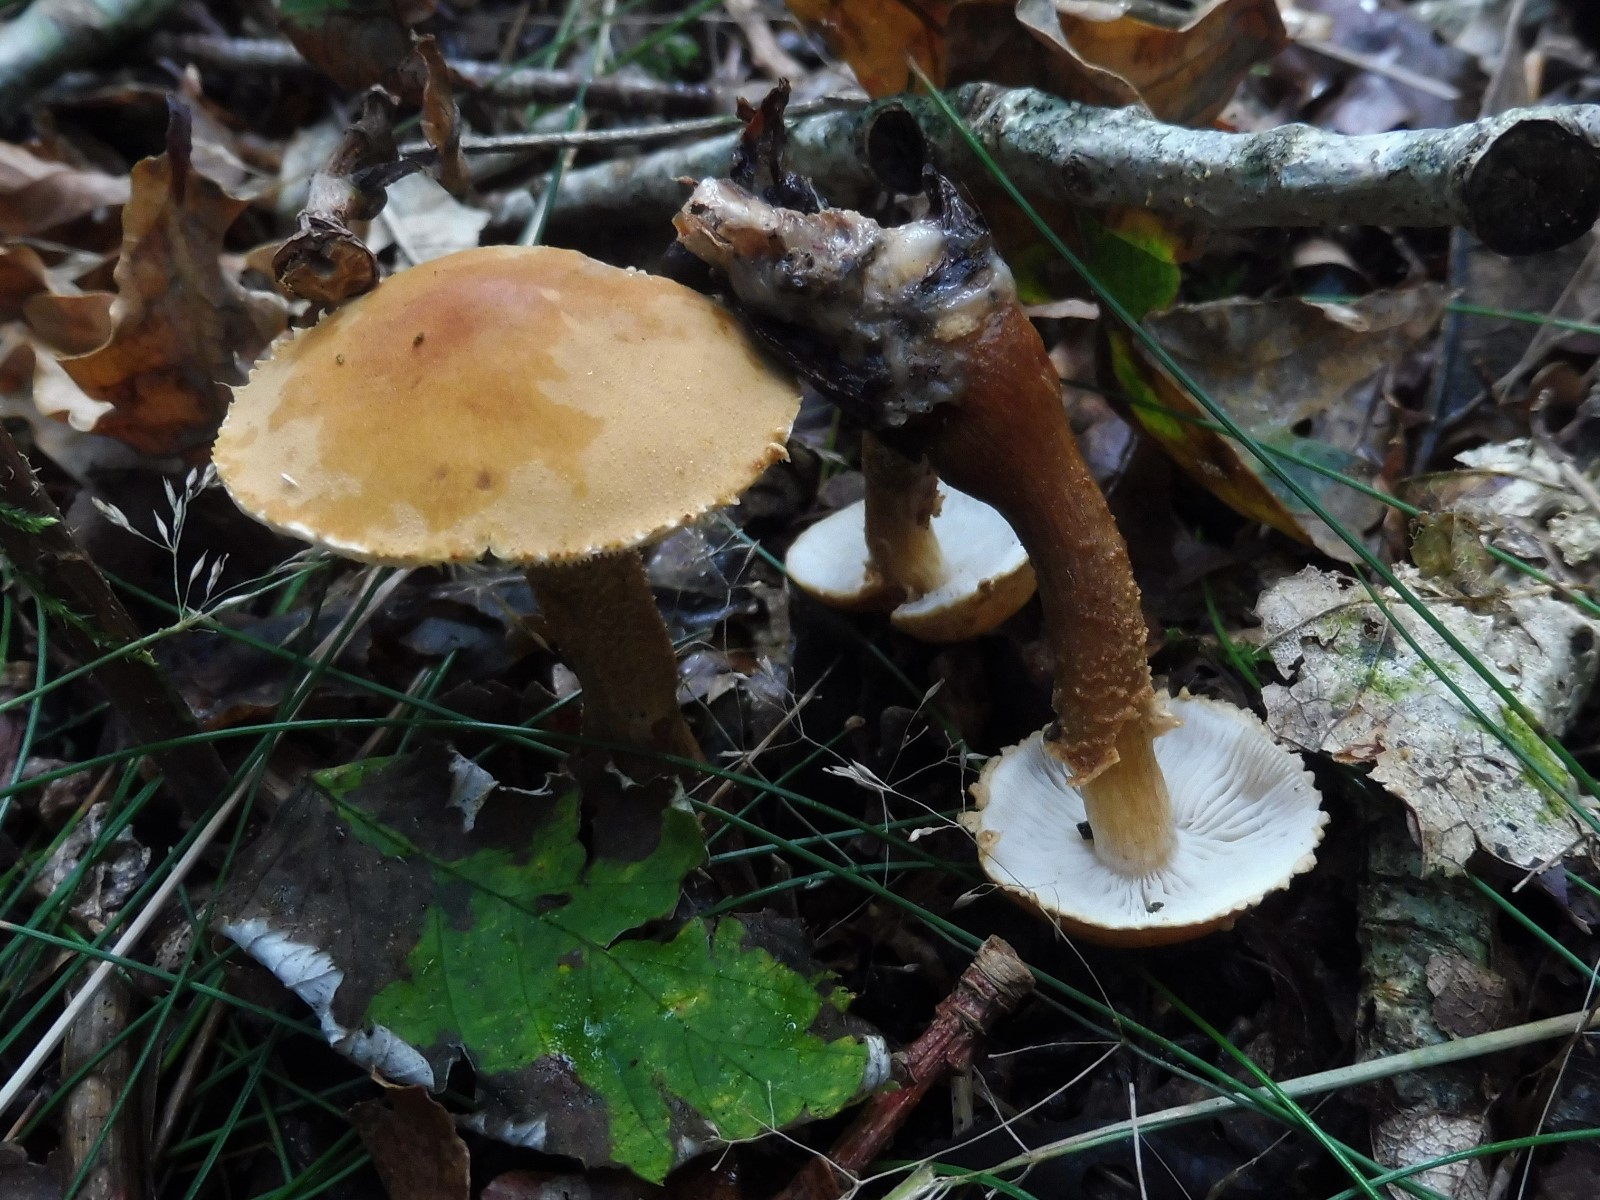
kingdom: Fungi
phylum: Basidiomycota
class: Agaricomycetes
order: Agaricales
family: Tricholomataceae
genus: Cystoderma
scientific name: Cystoderma amianthinum
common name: okkergul grynhat
